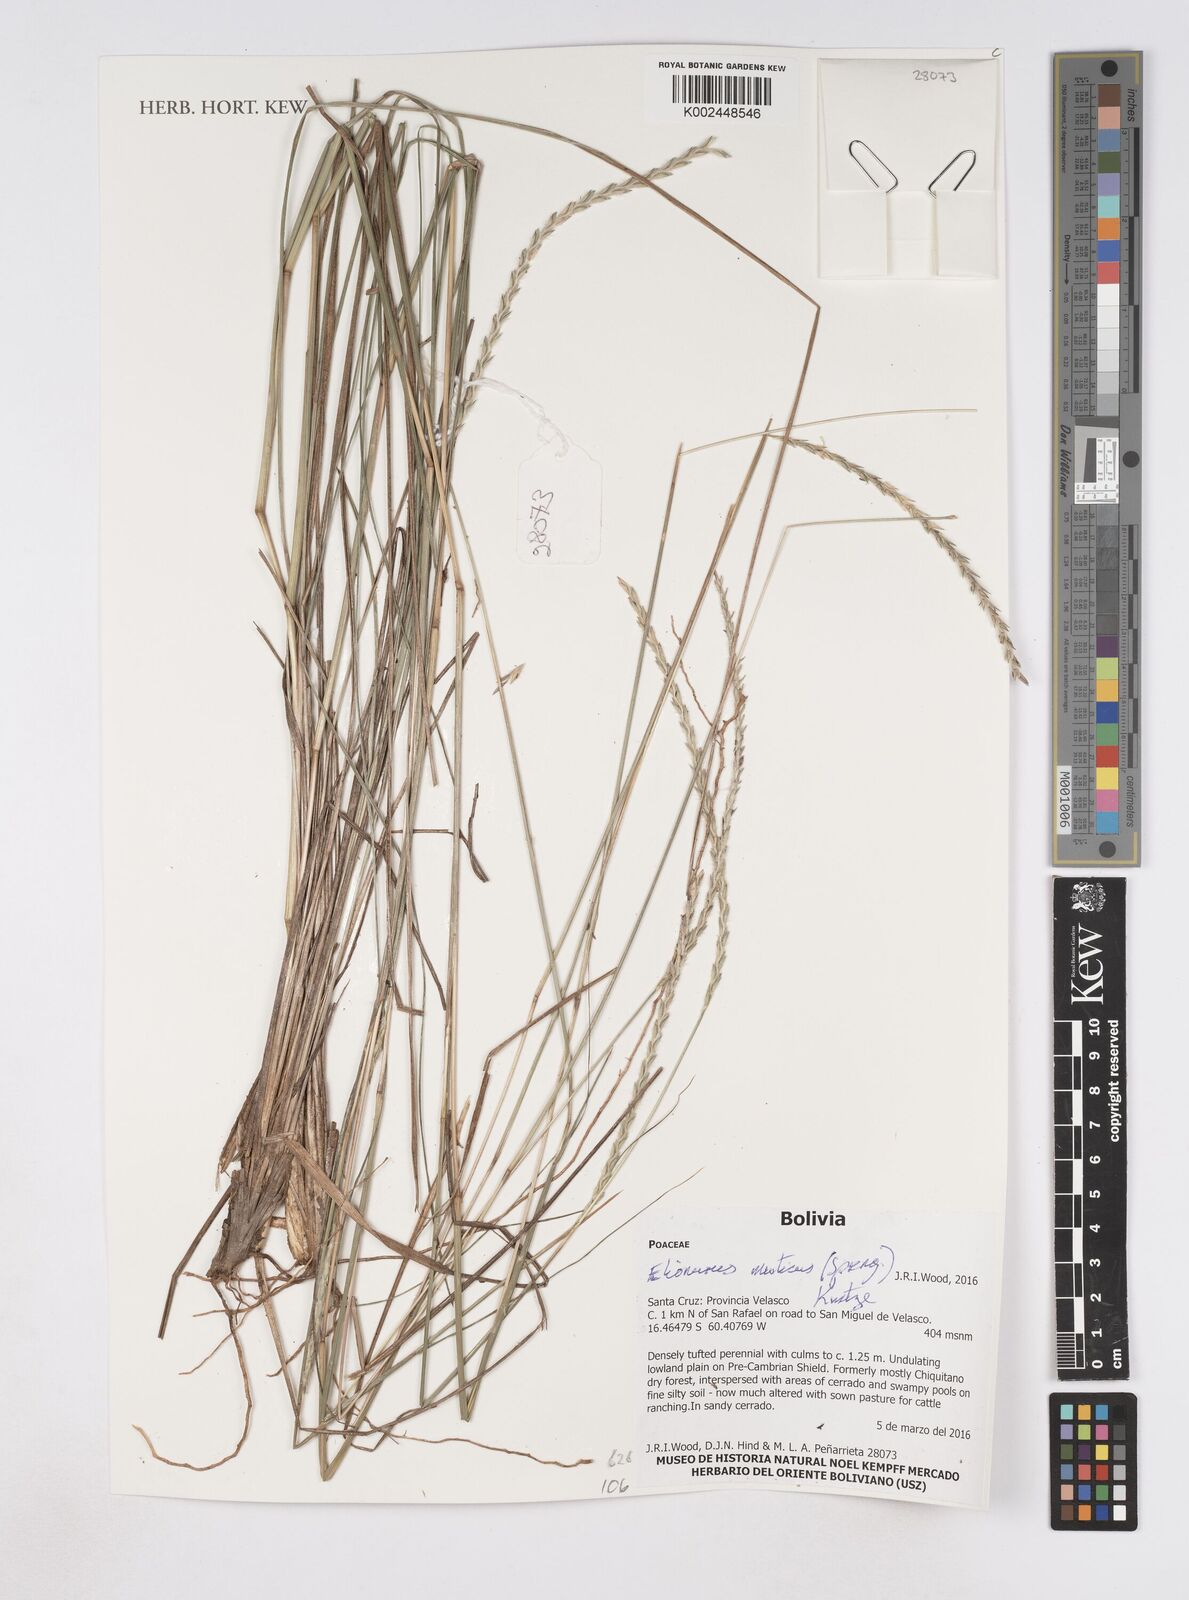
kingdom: Plantae
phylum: Tracheophyta
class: Liliopsida
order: Poales
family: Poaceae
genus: Elionurus
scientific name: Elionurus muticus
